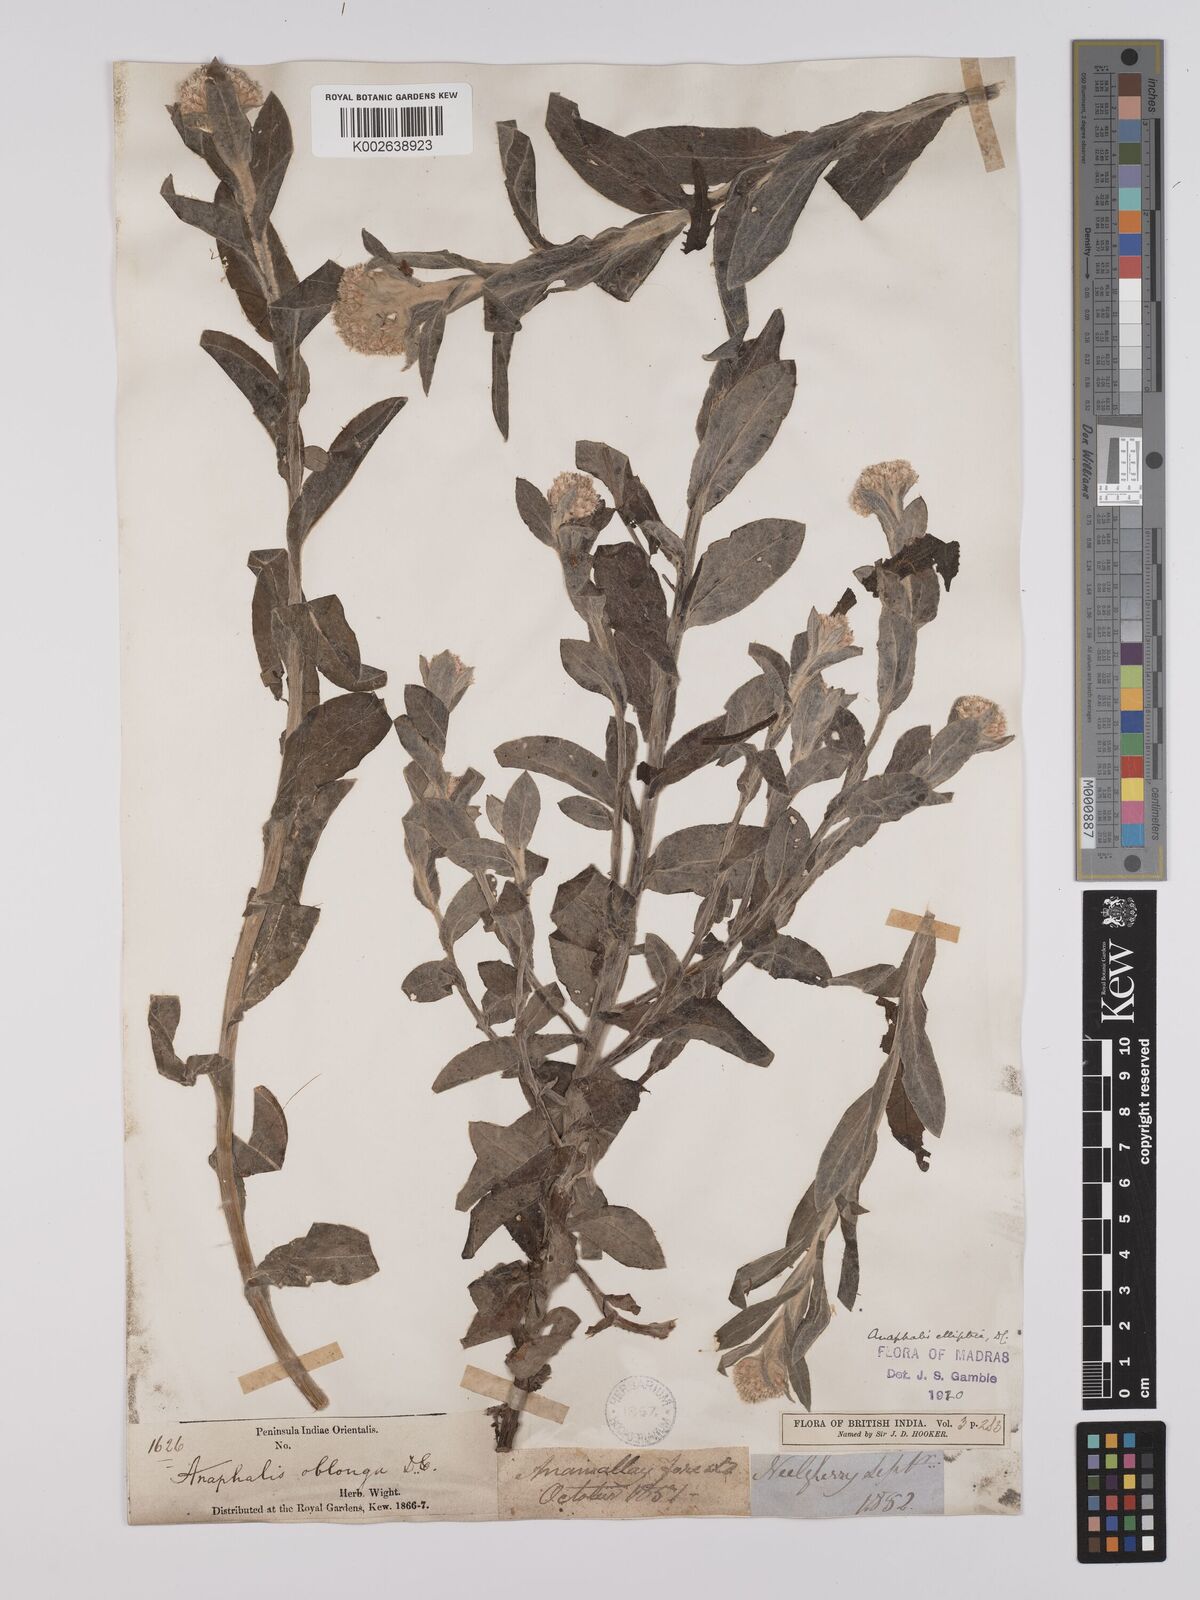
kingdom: Plantae
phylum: Tracheophyta
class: Magnoliopsida
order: Asterales
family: Asteraceae
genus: Anaphalis
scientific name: Anaphalis elliptica
